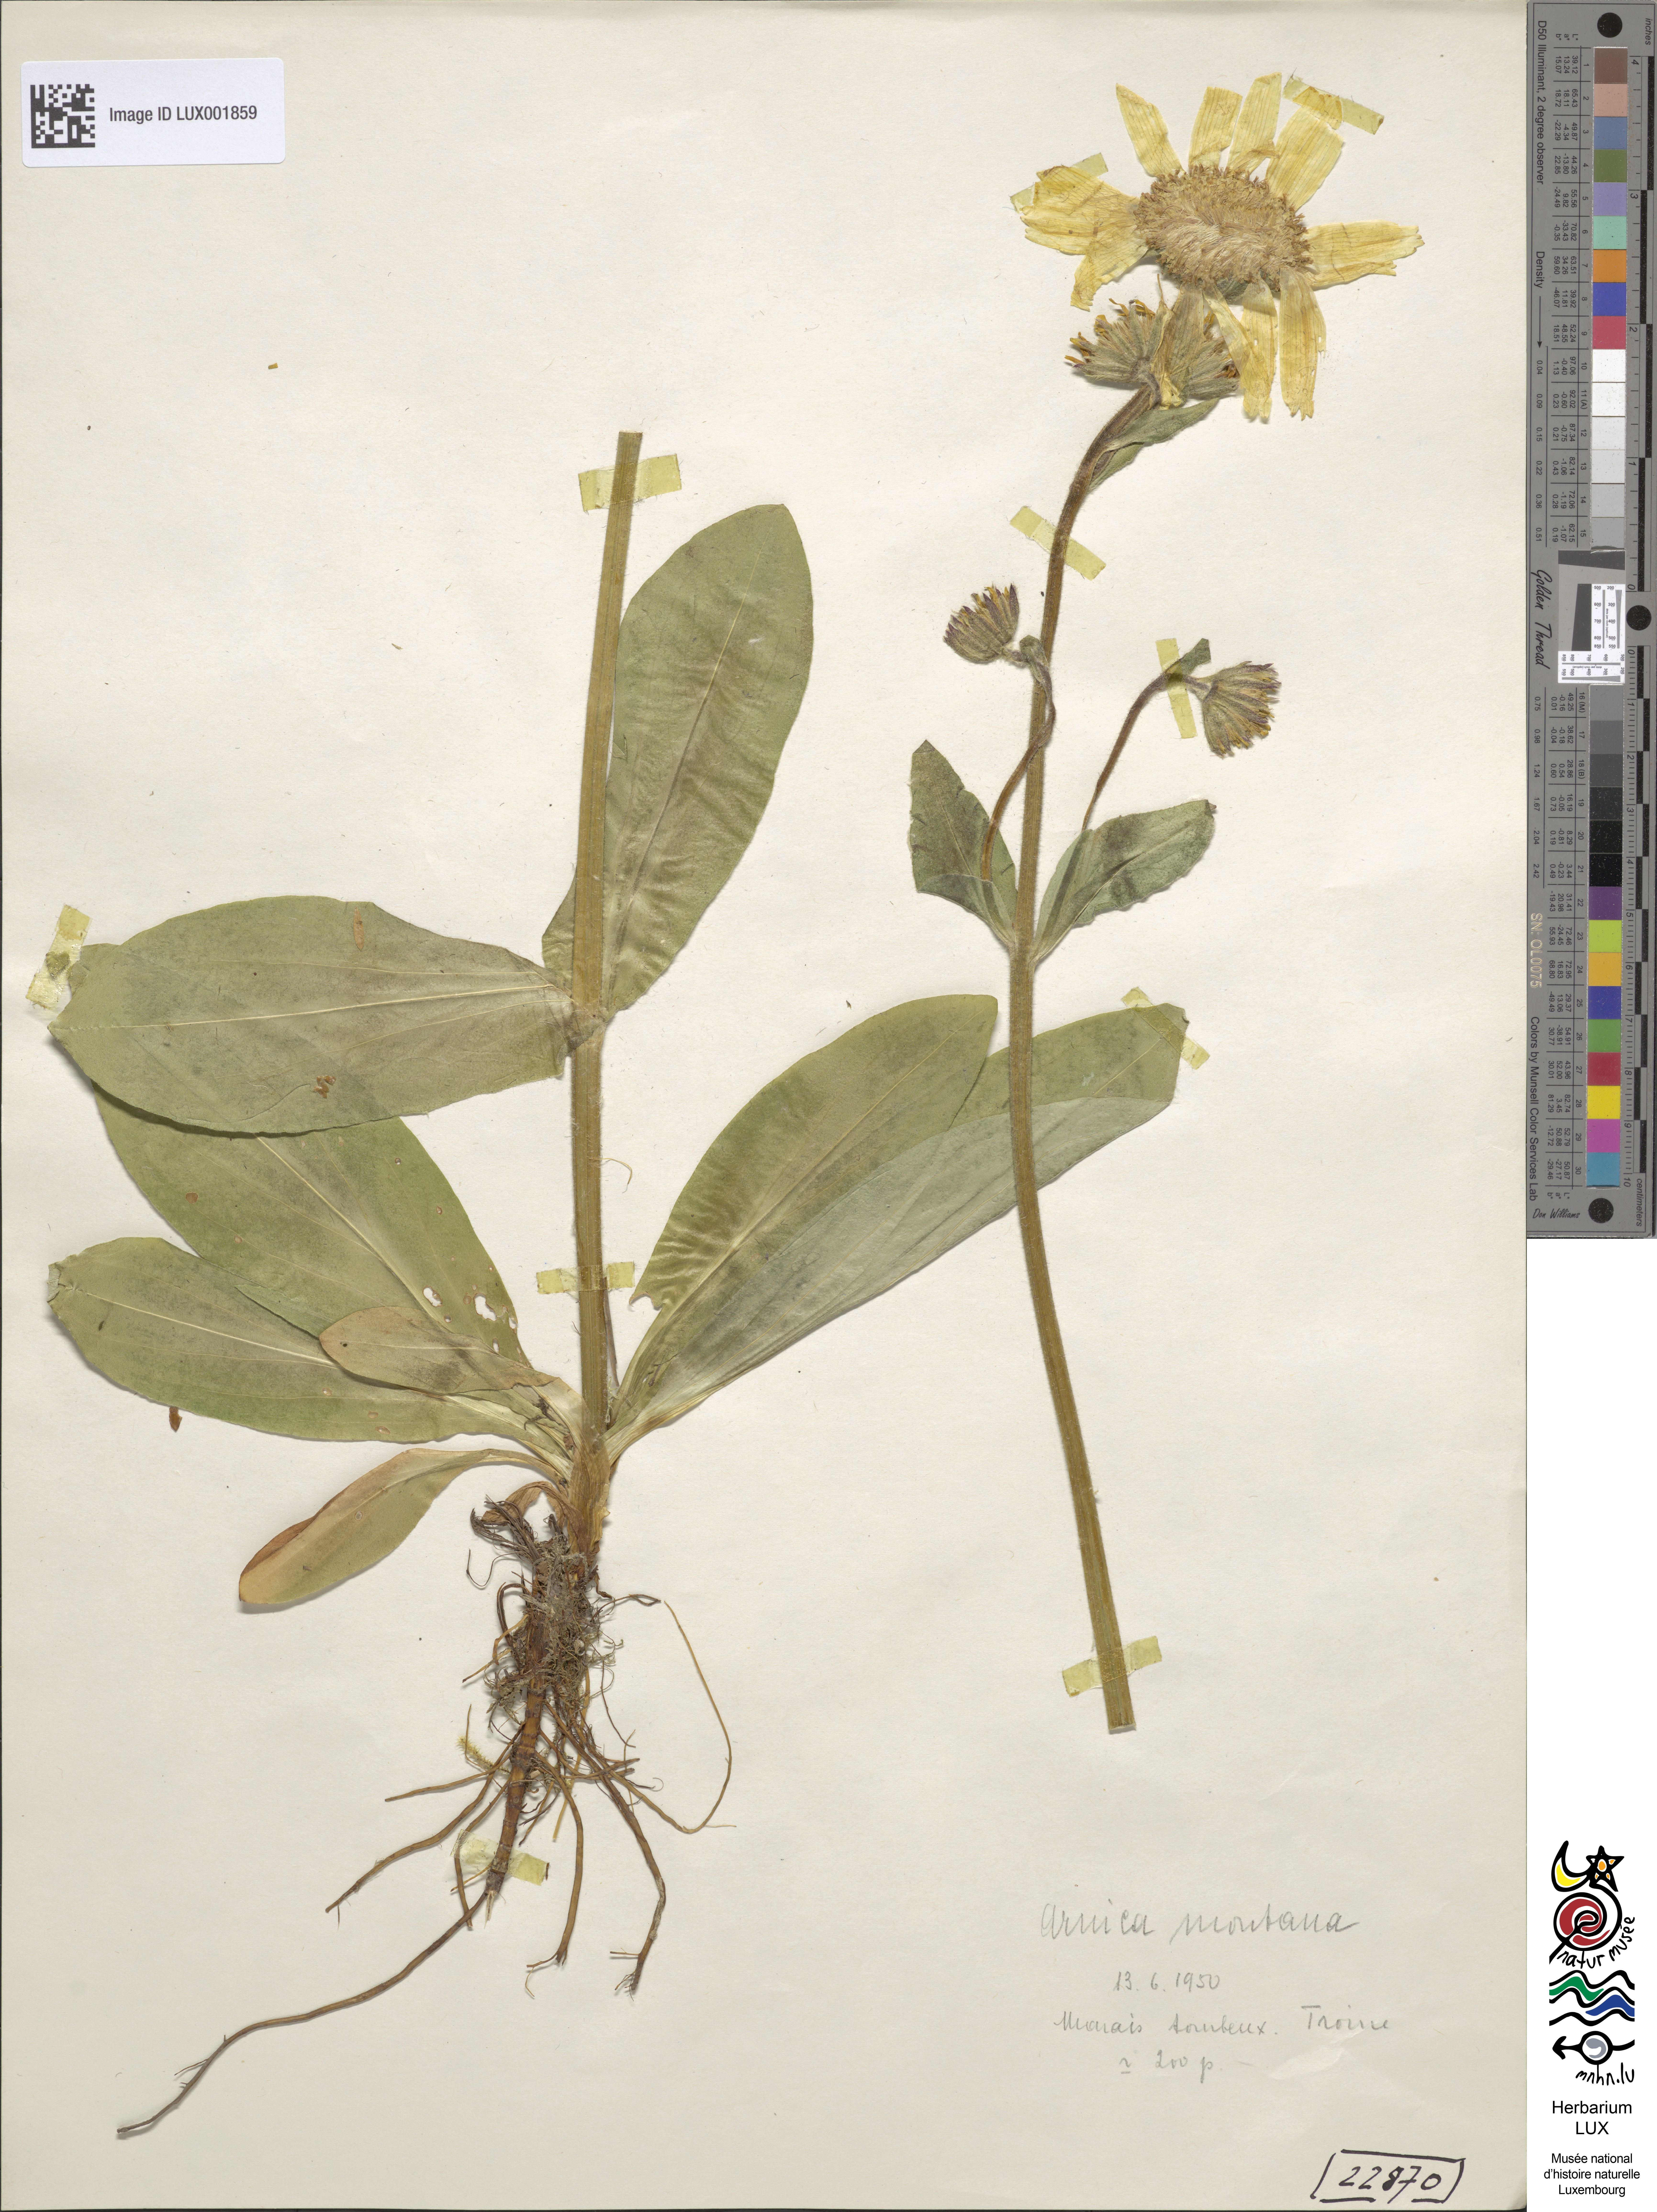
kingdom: Plantae
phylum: Tracheophyta
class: Magnoliopsida
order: Asterales
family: Asteraceae
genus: Arnica
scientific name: Arnica montana
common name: Leopard's bane
